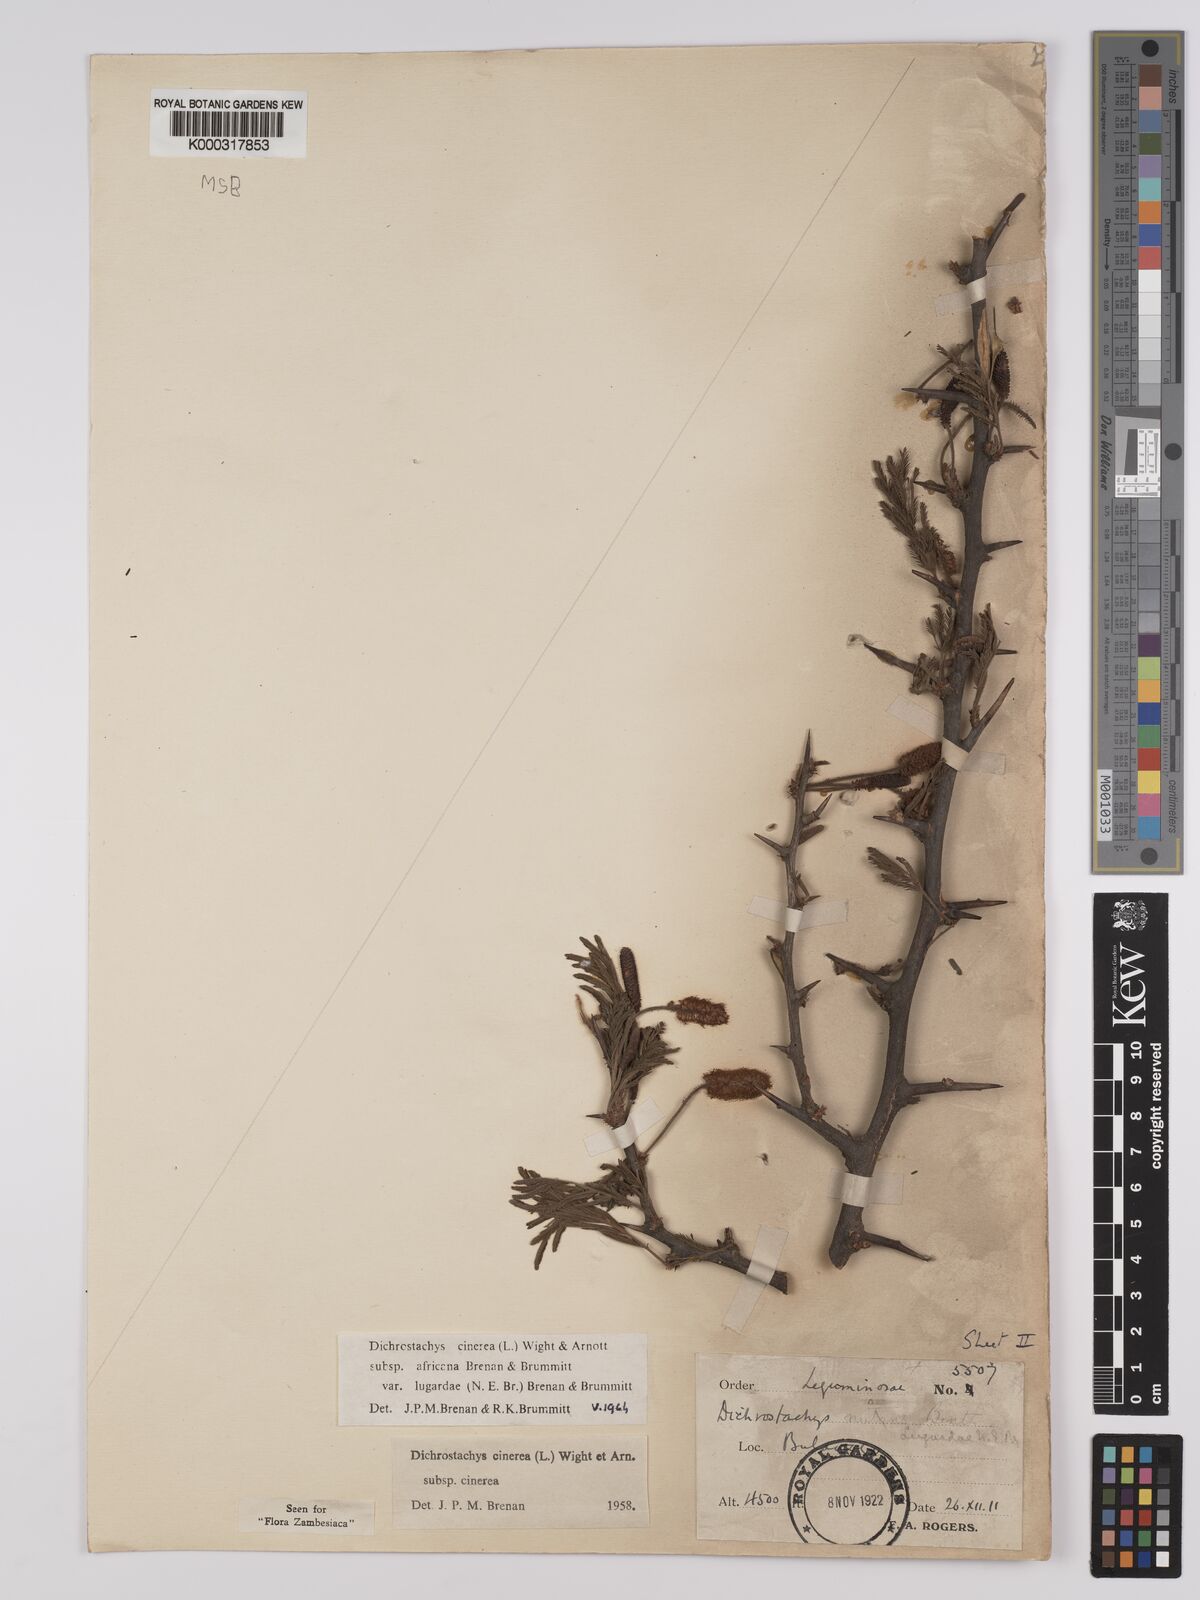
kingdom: Plantae
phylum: Tracheophyta
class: Magnoliopsida
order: Fabales
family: Fabaceae
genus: Dichrostachys
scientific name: Dichrostachys cinerea
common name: Sicklebush
